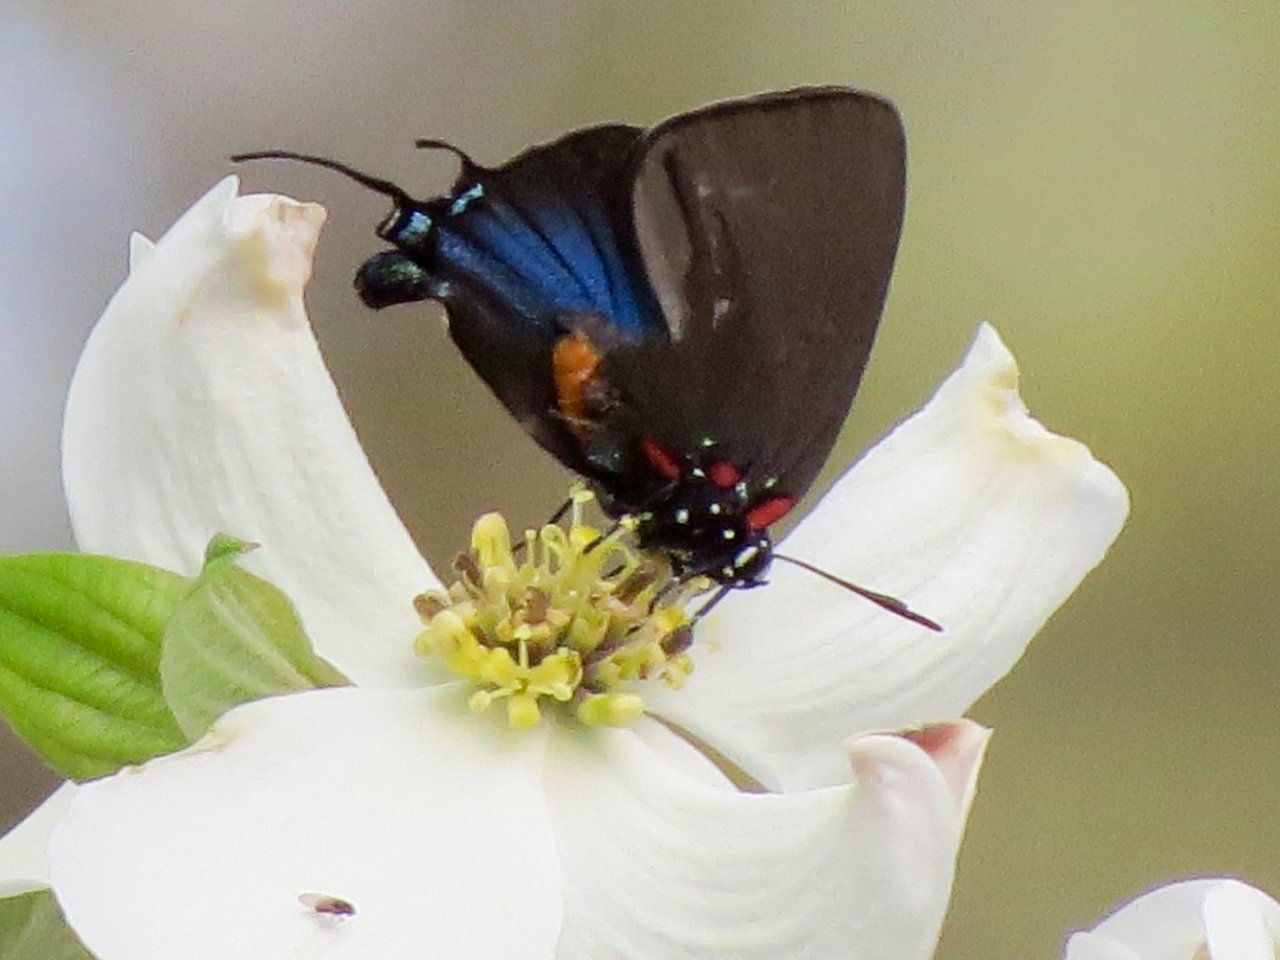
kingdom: Animalia
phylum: Arthropoda
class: Insecta
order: Lepidoptera
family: Lycaenidae
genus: Atlides
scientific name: Atlides halesus
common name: Great Purple Hairstreak
